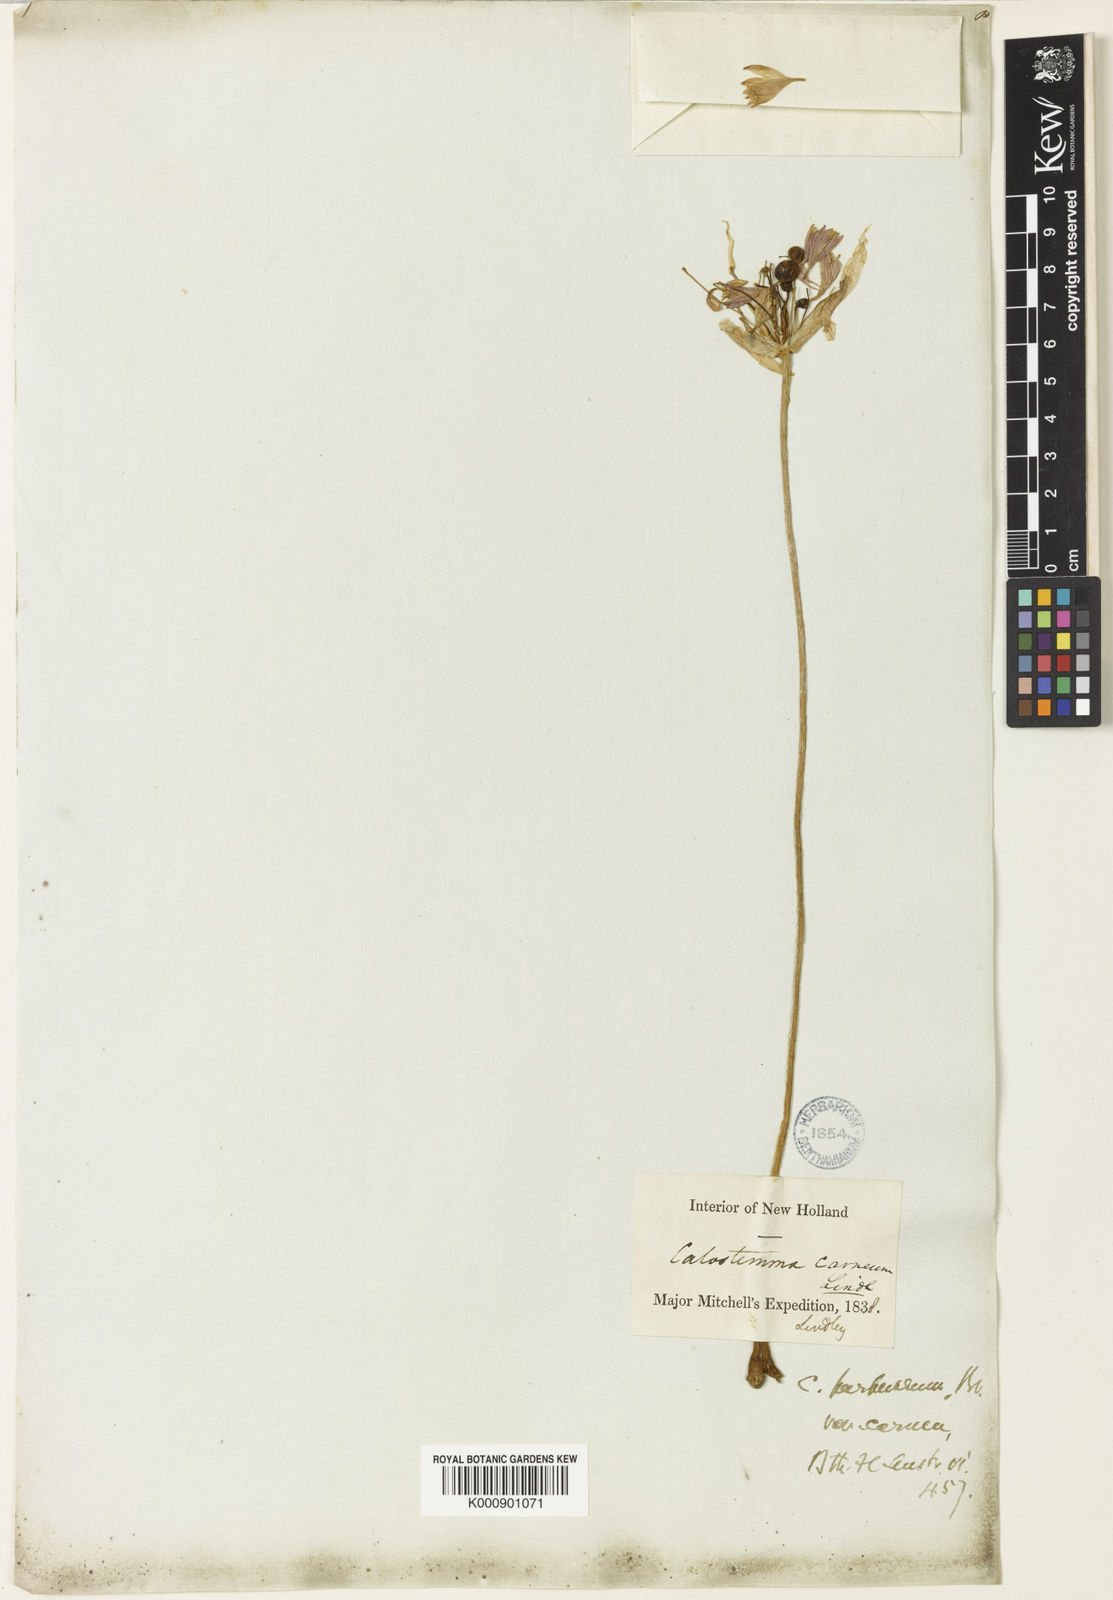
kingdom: Plantae
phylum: Tracheophyta
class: Liliopsida
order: Asparagales
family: Amaryllidaceae
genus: Calostemma
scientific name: Calostemma purpureum
